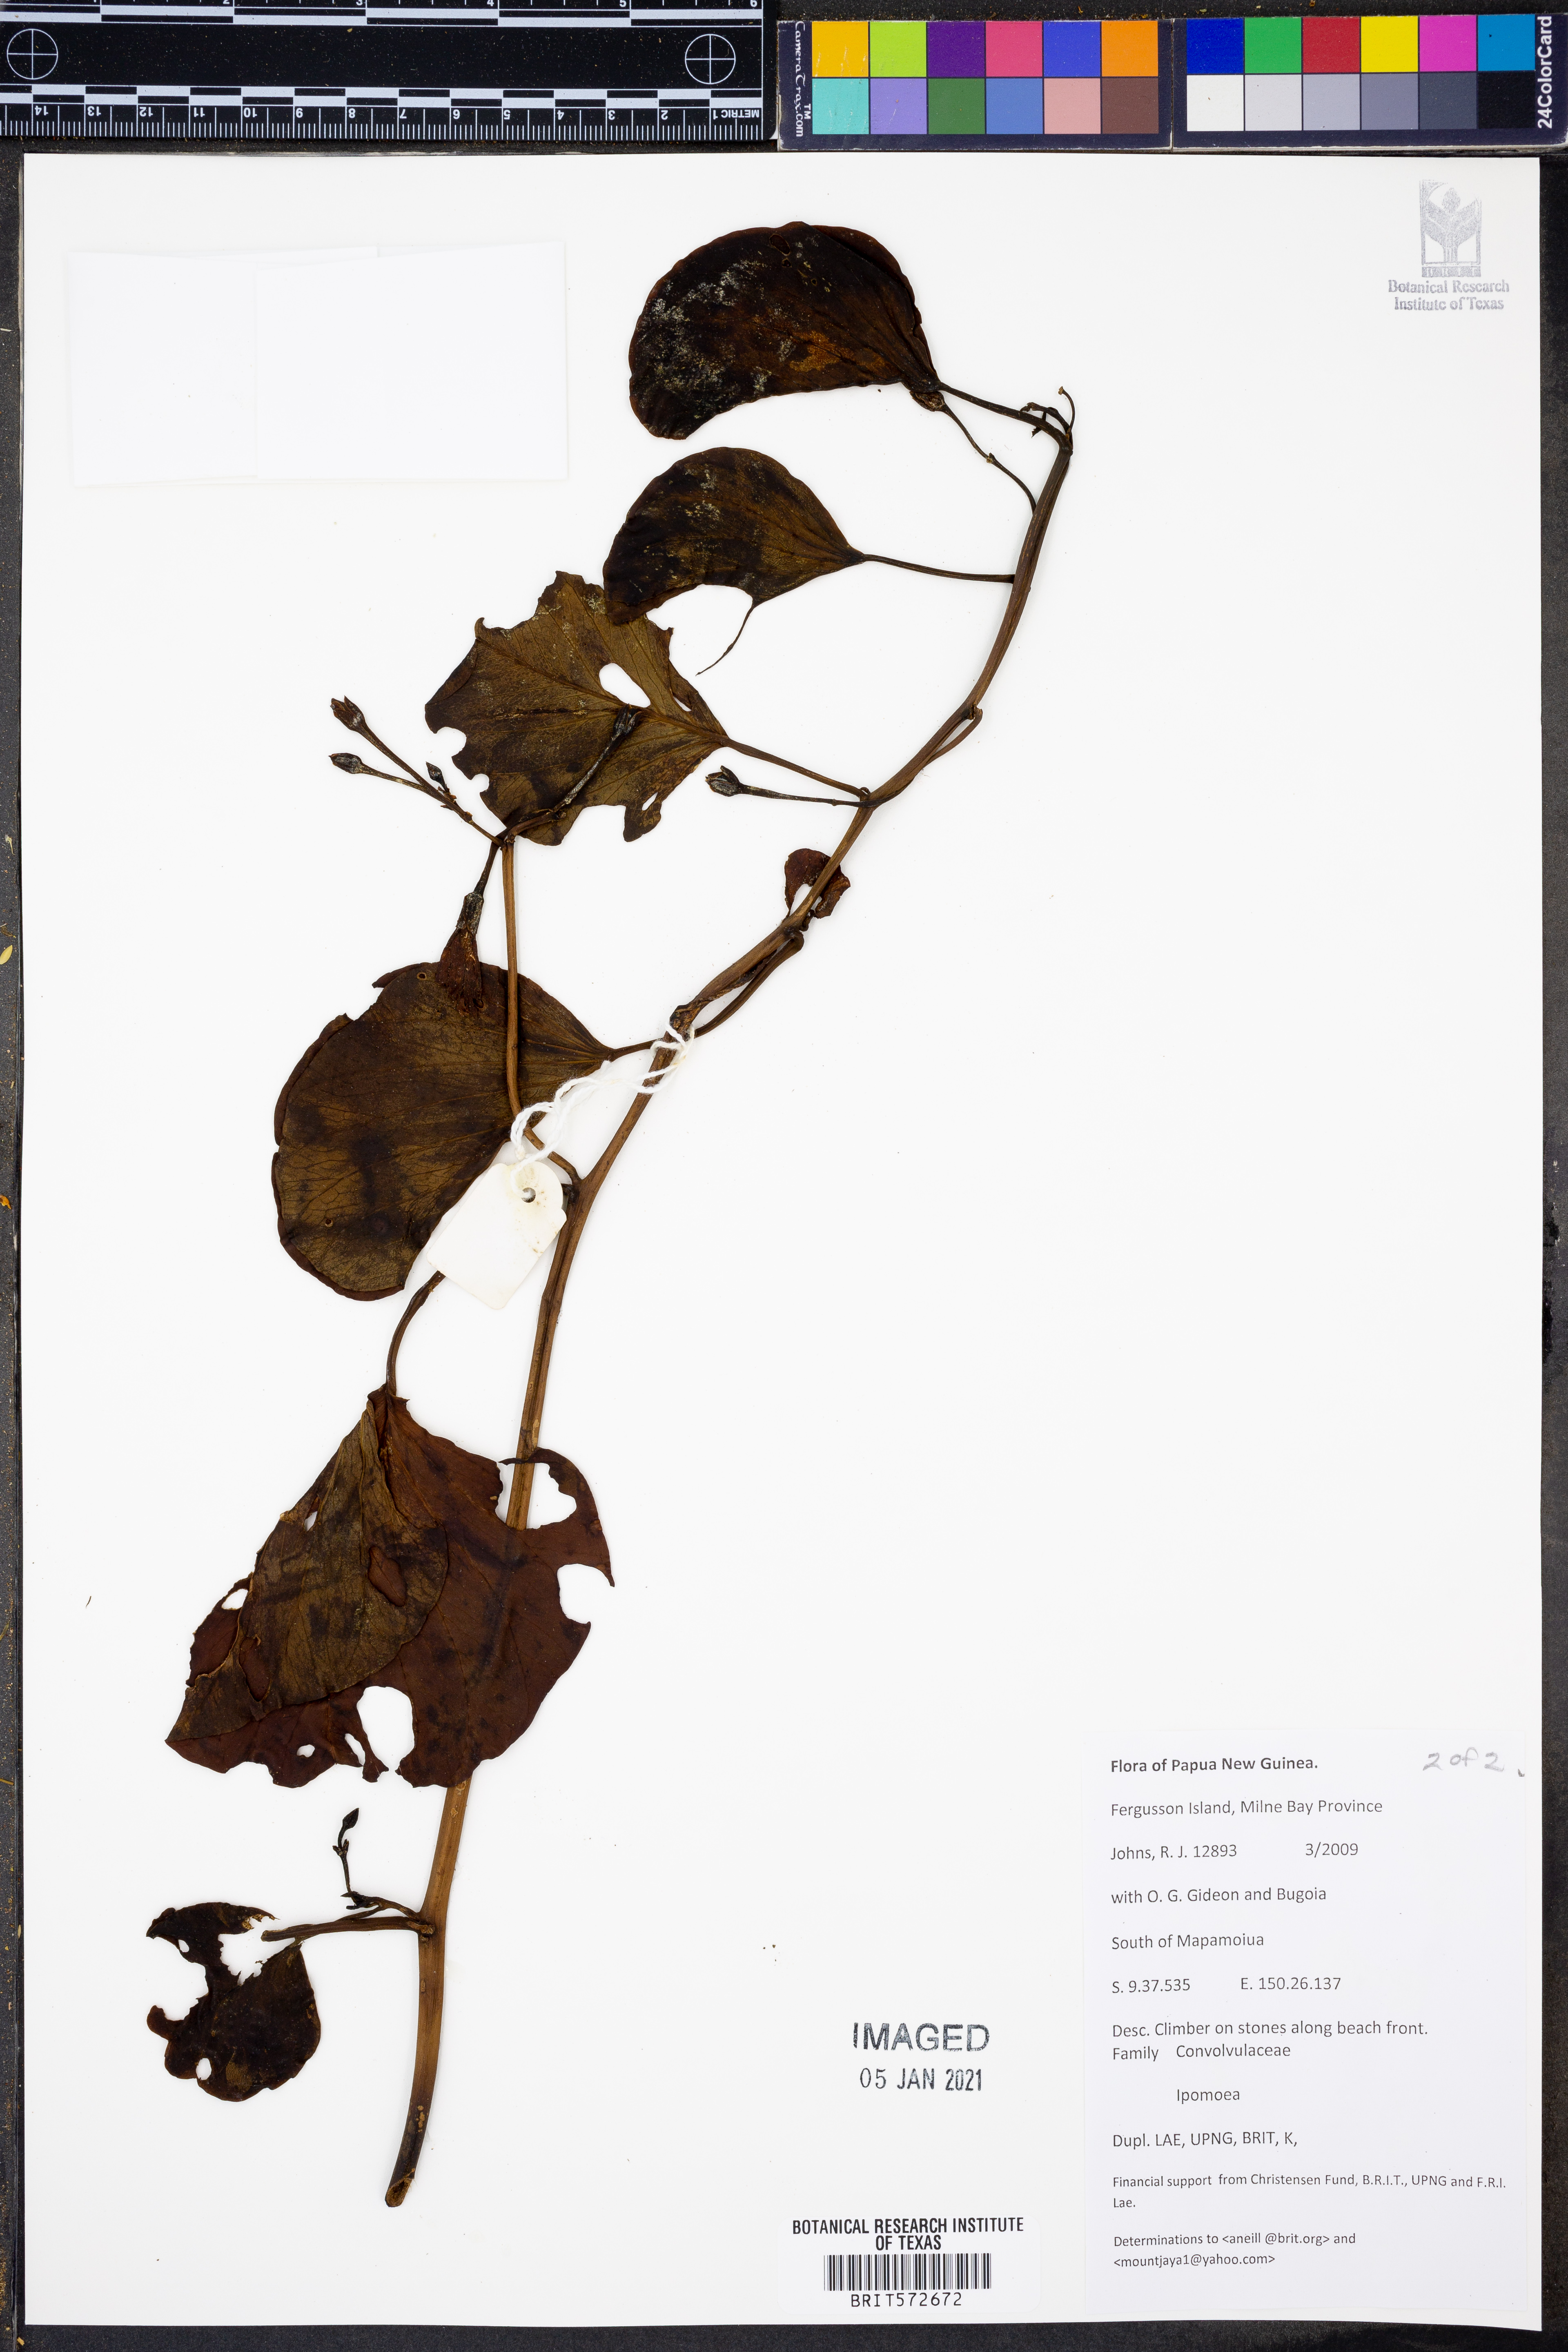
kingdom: Plantae
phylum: Tracheophyta
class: Magnoliopsida
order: Solanales
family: Convolvulaceae
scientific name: Convolvulaceae
